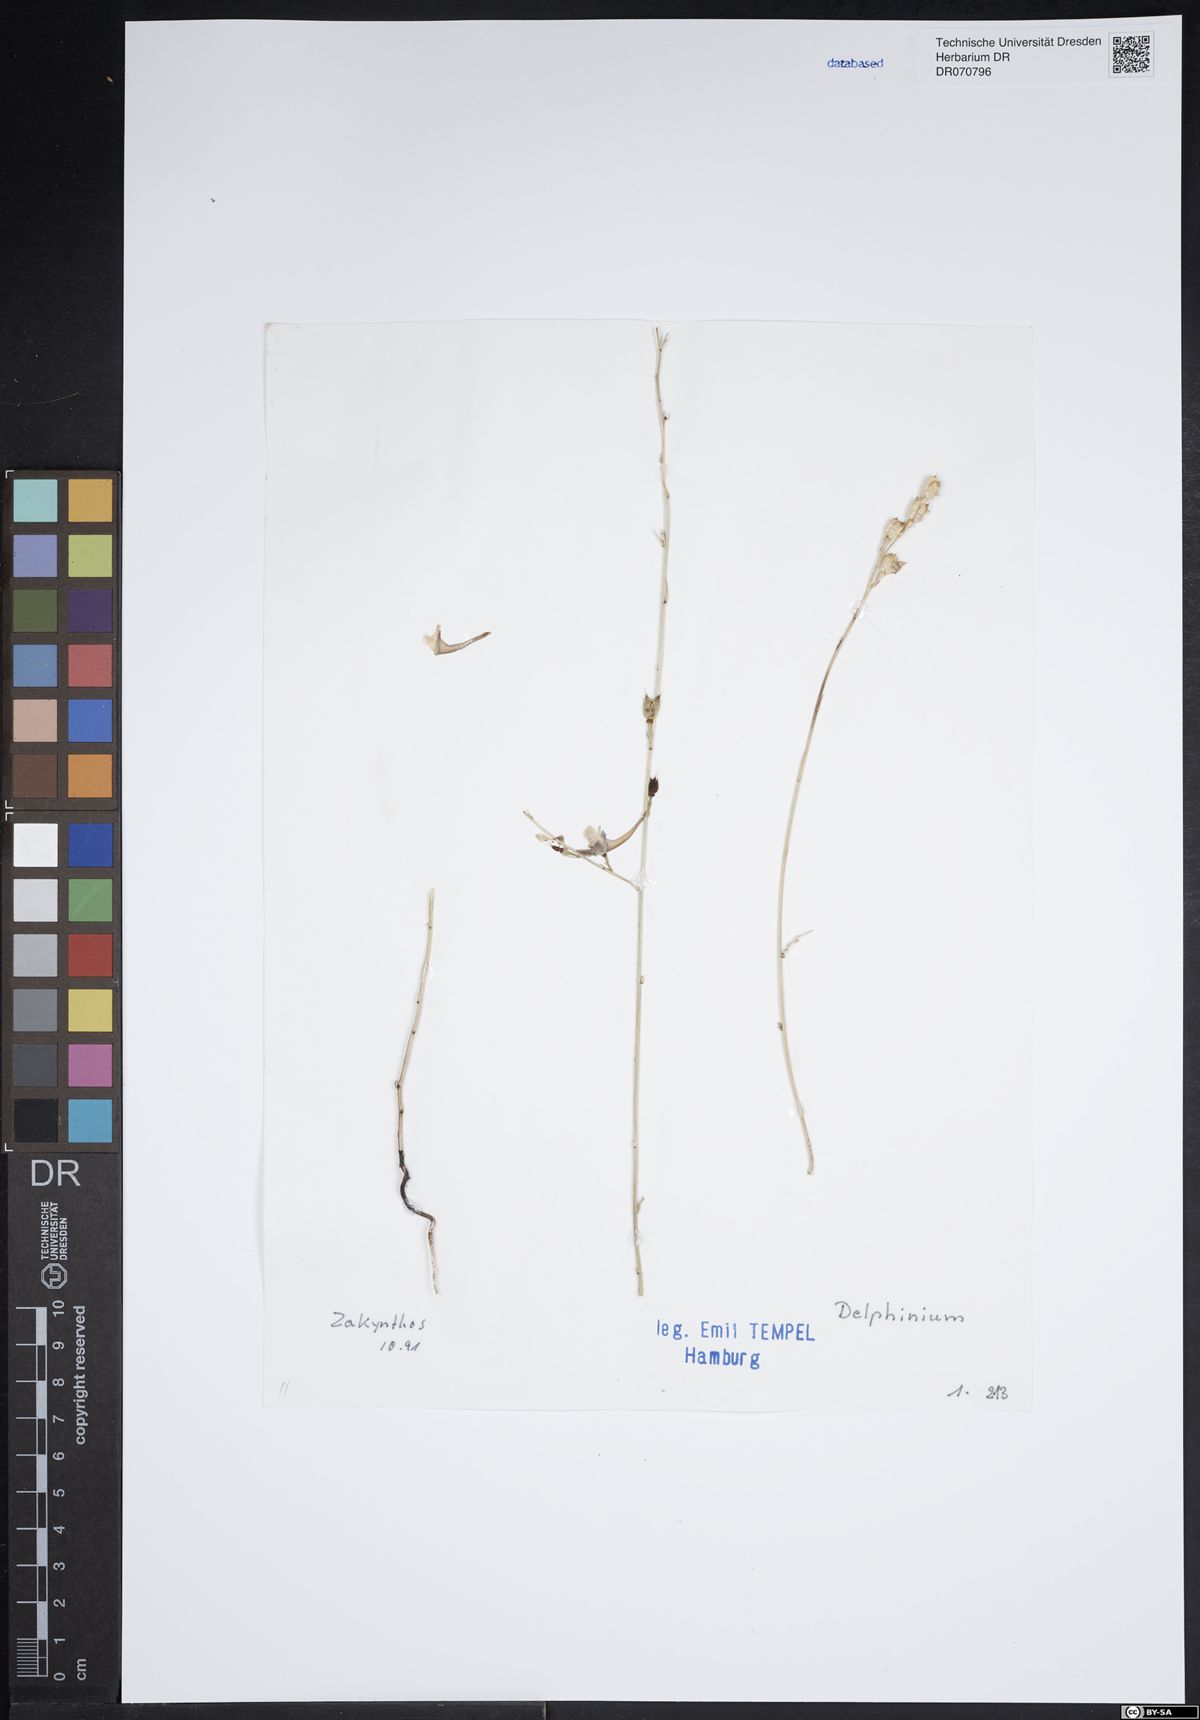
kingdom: Plantae
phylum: Tracheophyta
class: Magnoliopsida
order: Ranunculales
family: Ranunculaceae
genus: Delphinium
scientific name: Delphinium
